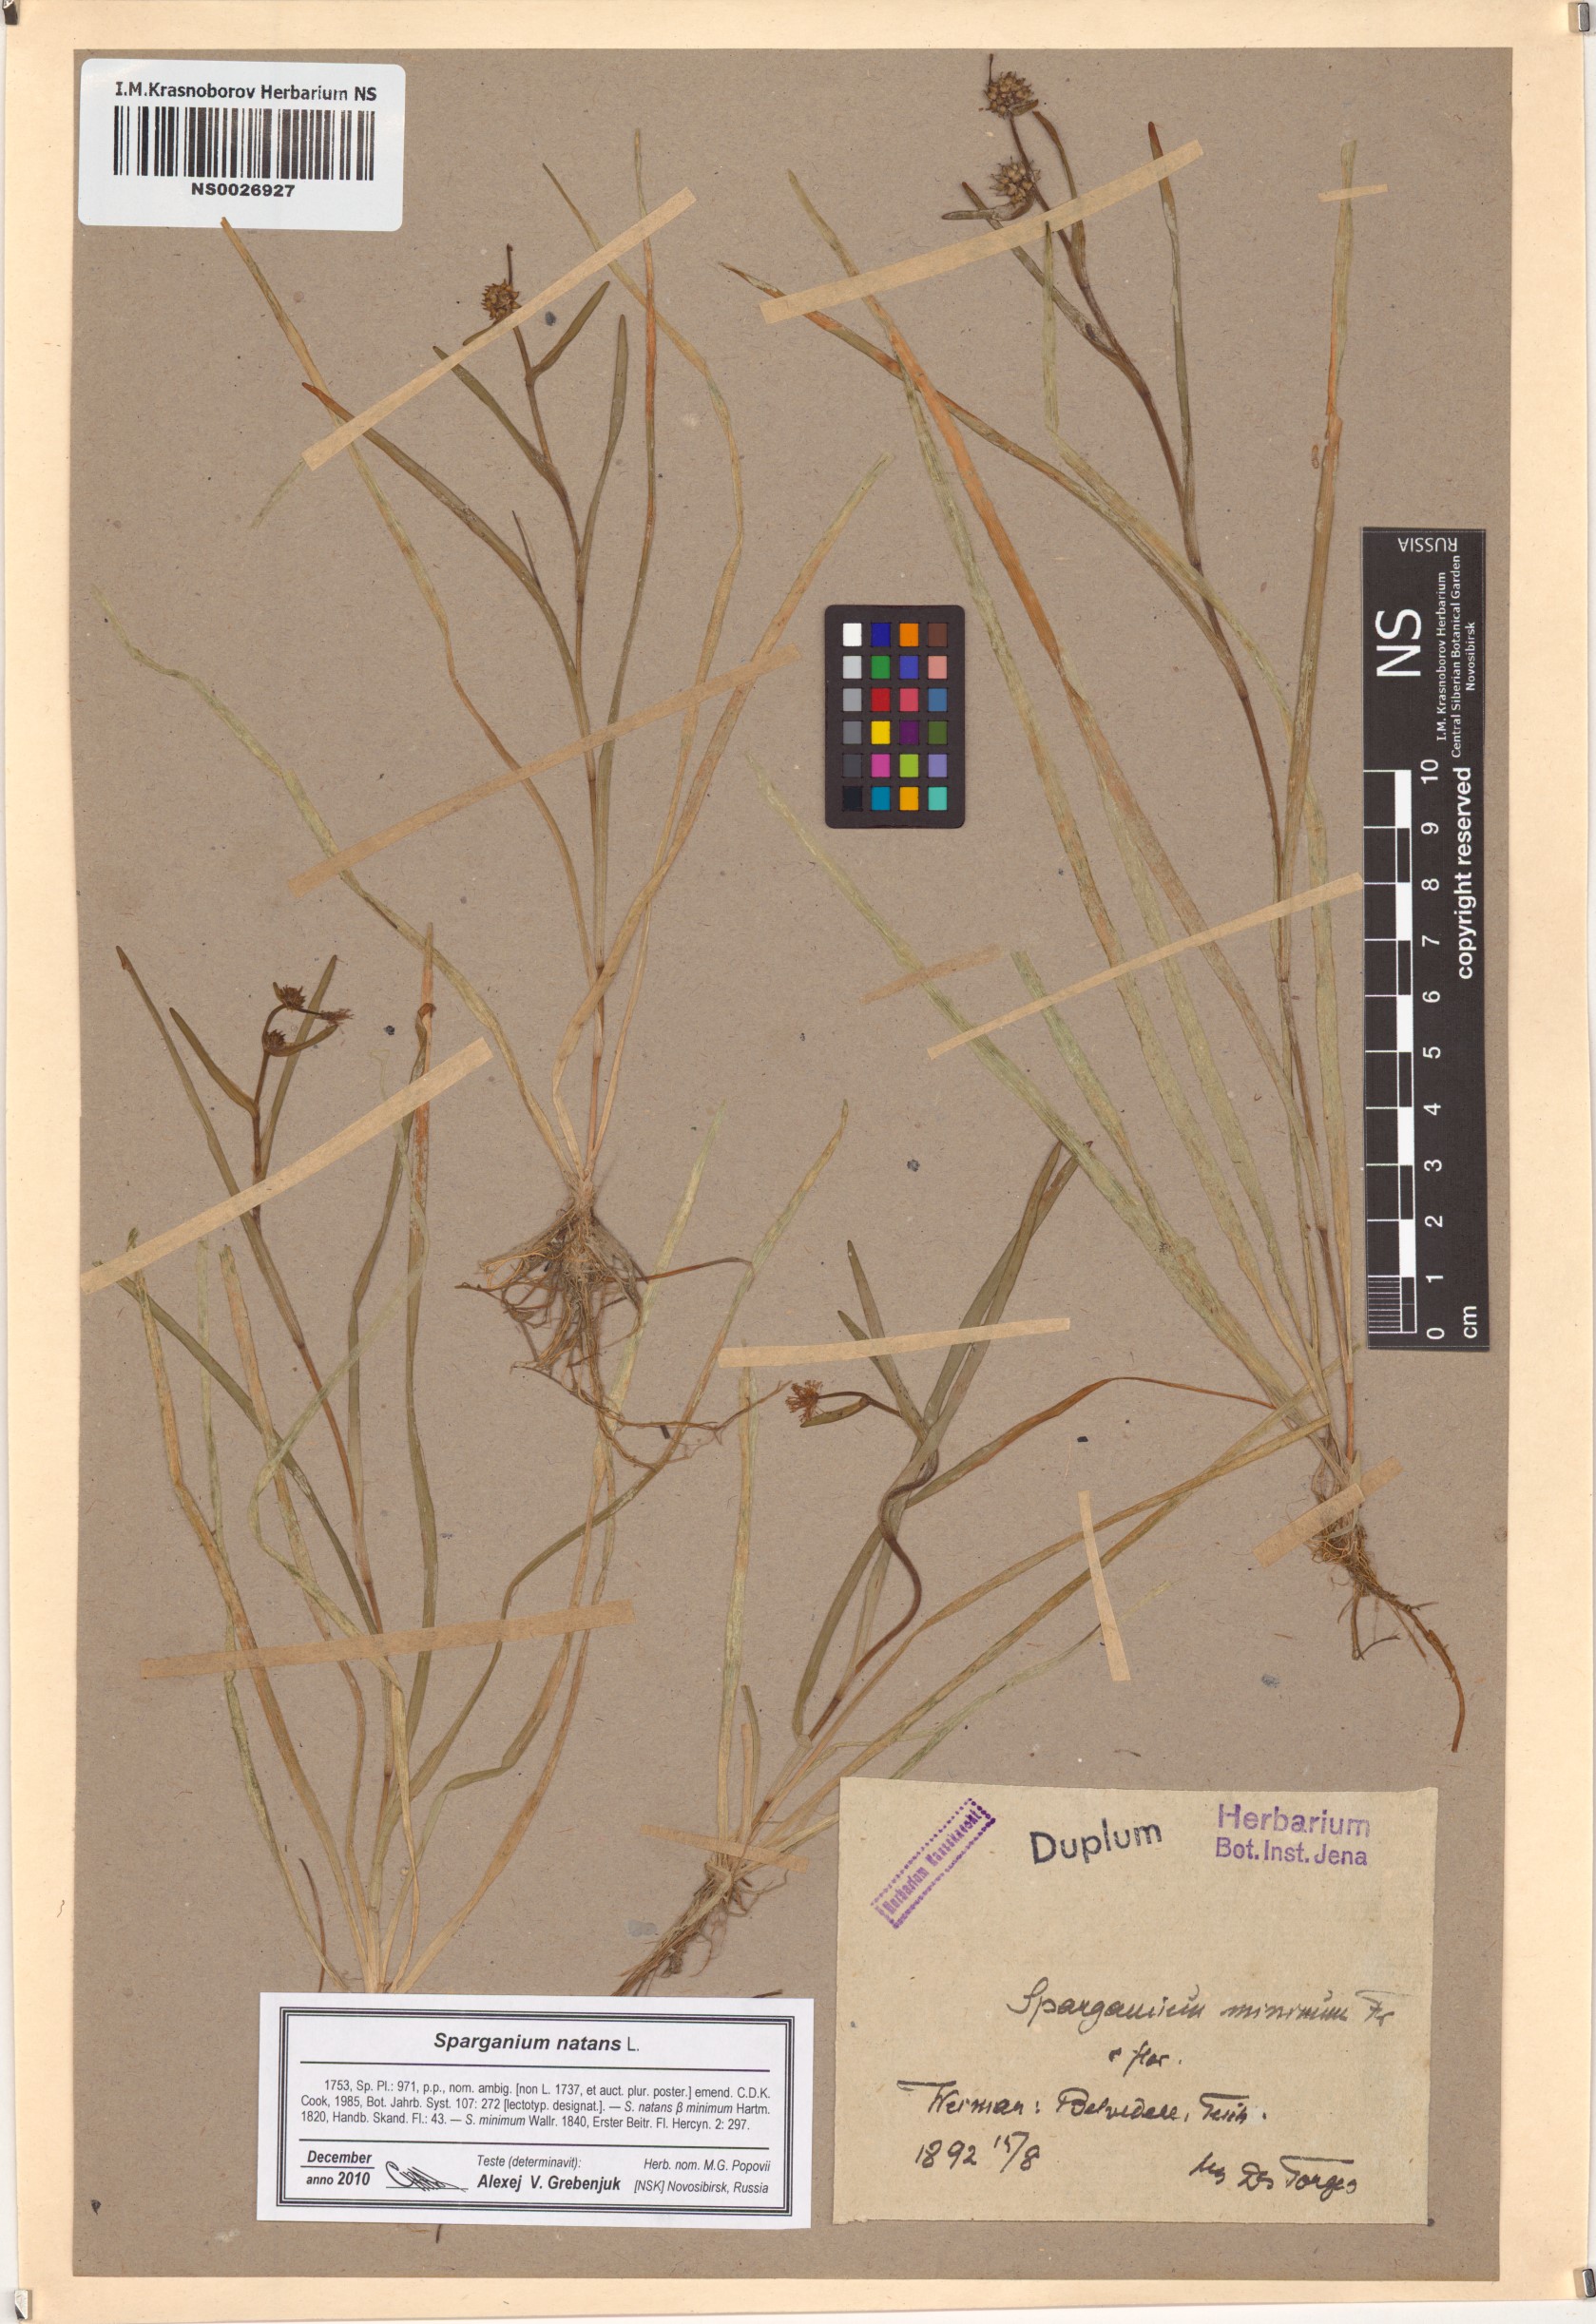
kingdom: Plantae
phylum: Tracheophyta
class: Liliopsida
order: Poales
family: Typhaceae
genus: Sparganium
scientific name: Sparganium natans
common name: Least bur-reed
